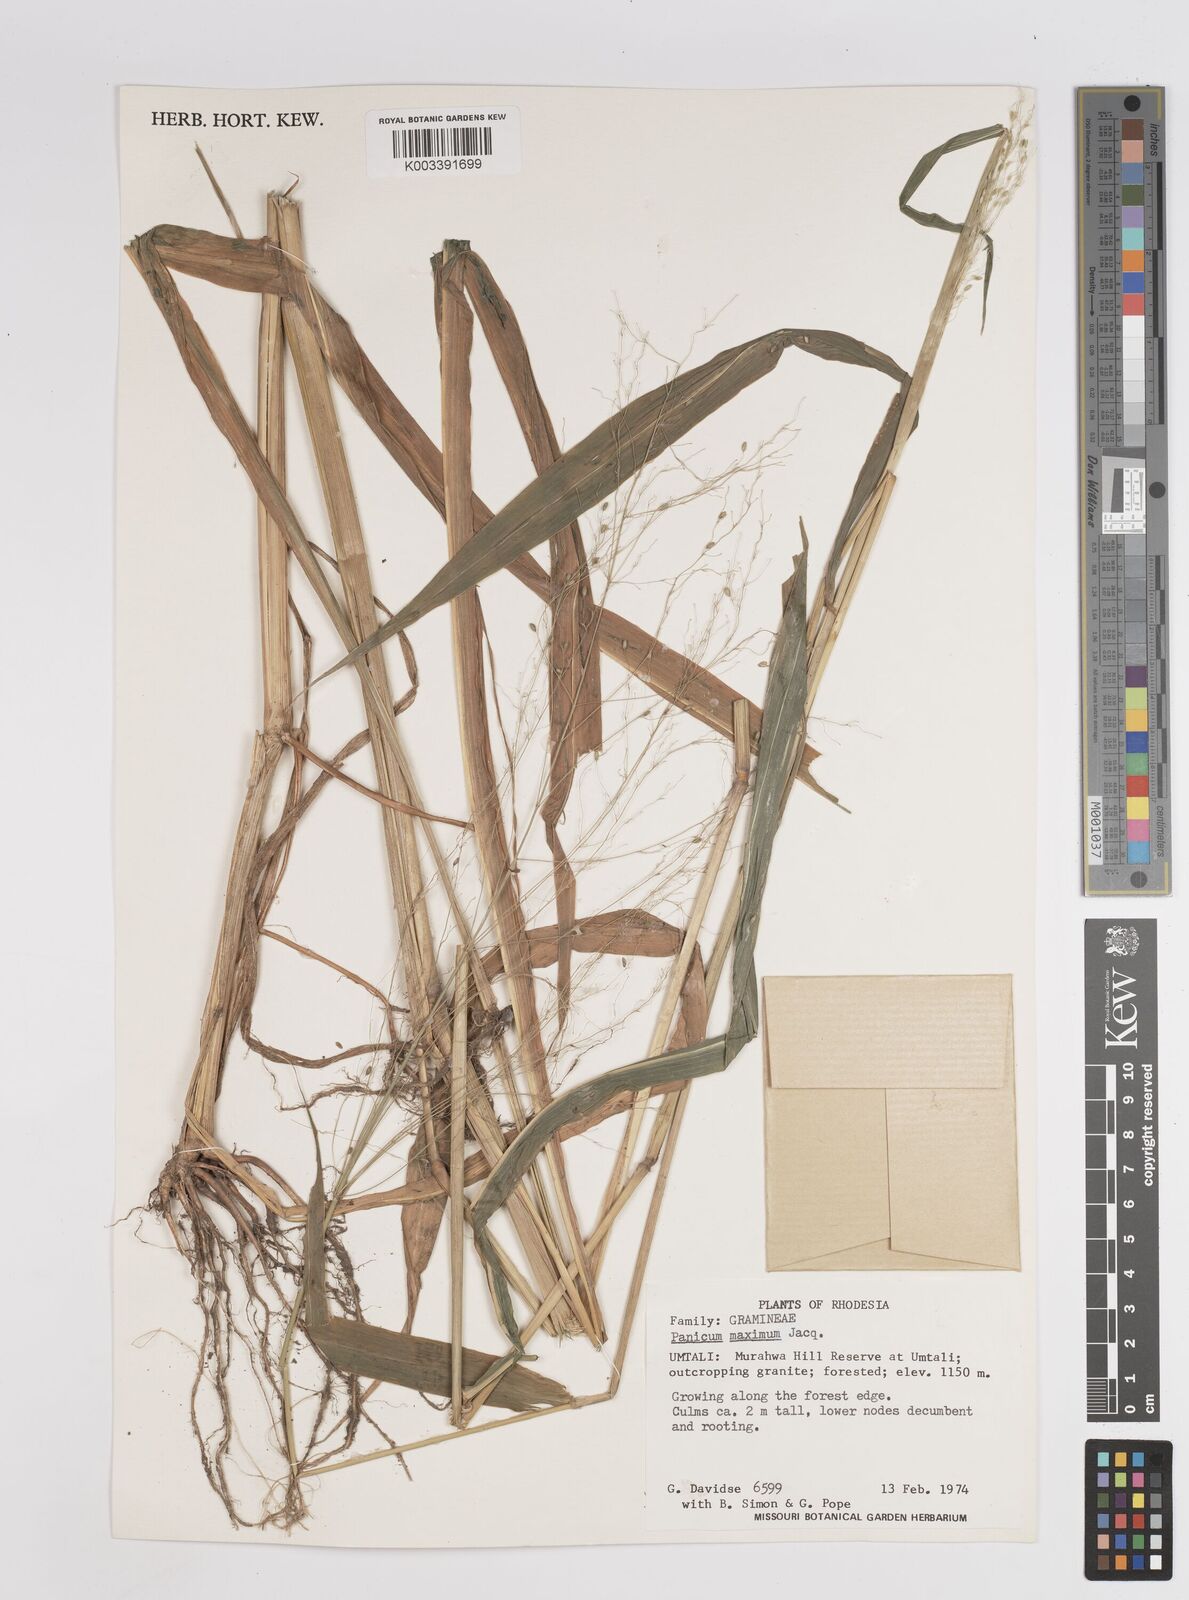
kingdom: Plantae
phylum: Tracheophyta
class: Liliopsida
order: Poales
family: Poaceae
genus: Megathyrsus
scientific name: Megathyrsus maximus
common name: Guineagrass
